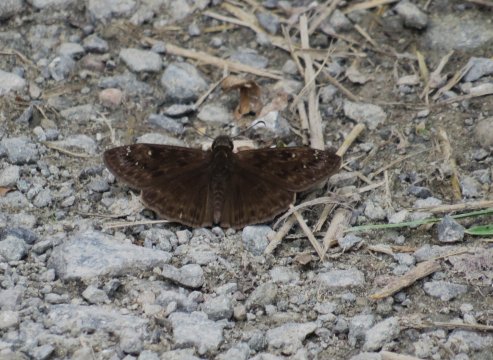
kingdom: Animalia
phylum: Arthropoda
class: Insecta
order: Lepidoptera
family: Hesperiidae
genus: Gesta
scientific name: Gesta
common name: Wild Indigo Duskywing
